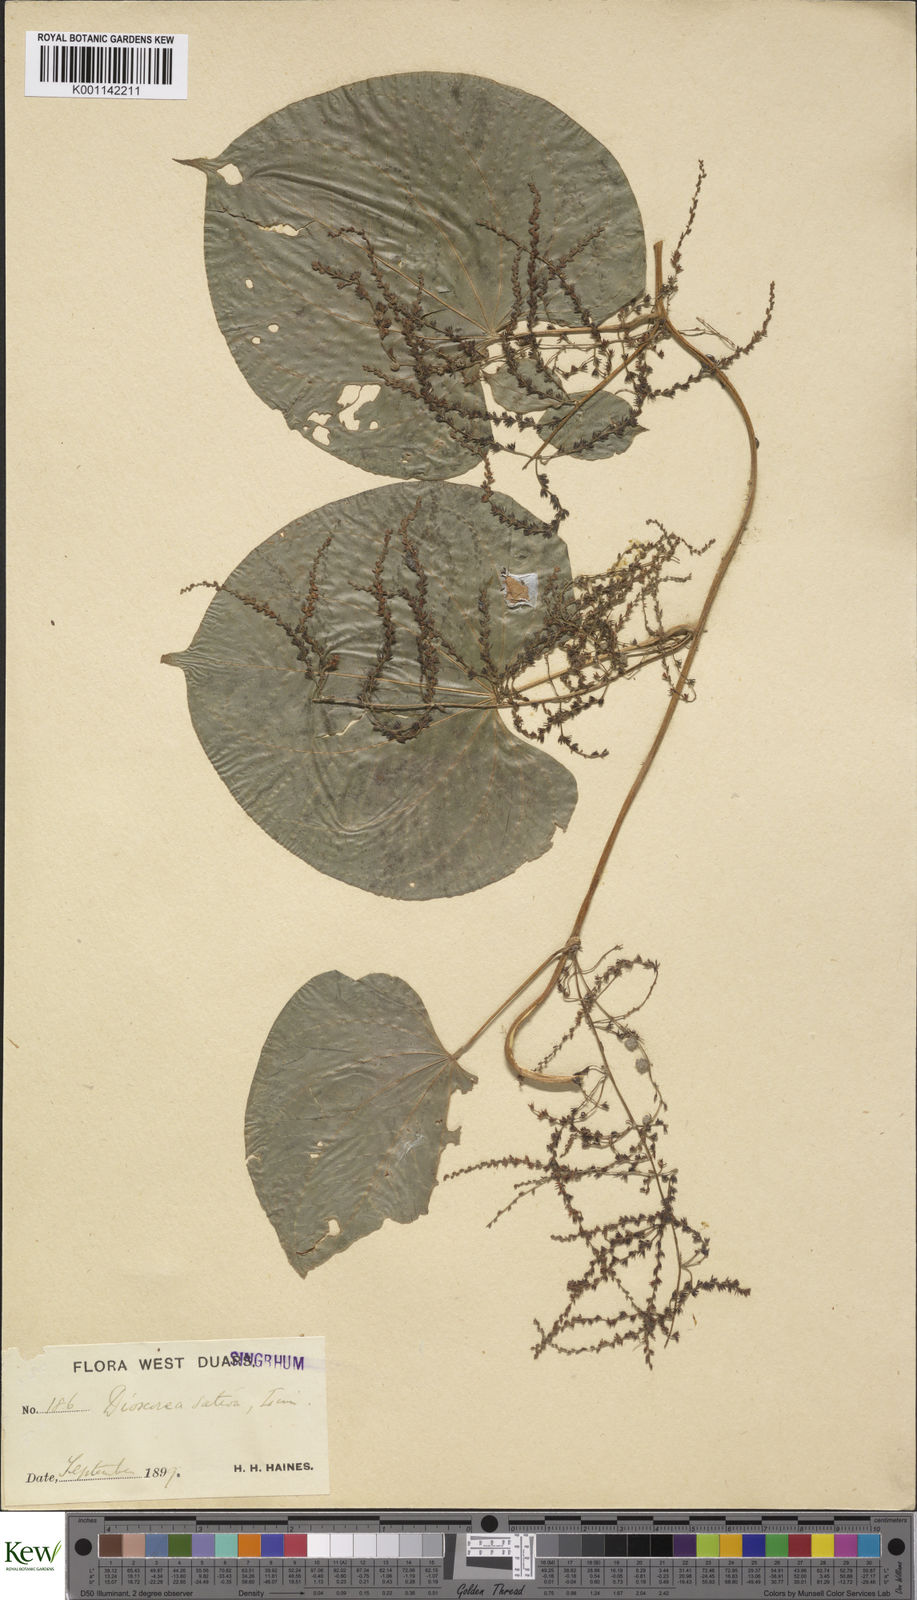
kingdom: Plantae
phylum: Tracheophyta
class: Liliopsida
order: Dioscoreales
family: Dioscoreaceae
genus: Dioscorea
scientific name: Dioscorea bulbifera
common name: Air yam
